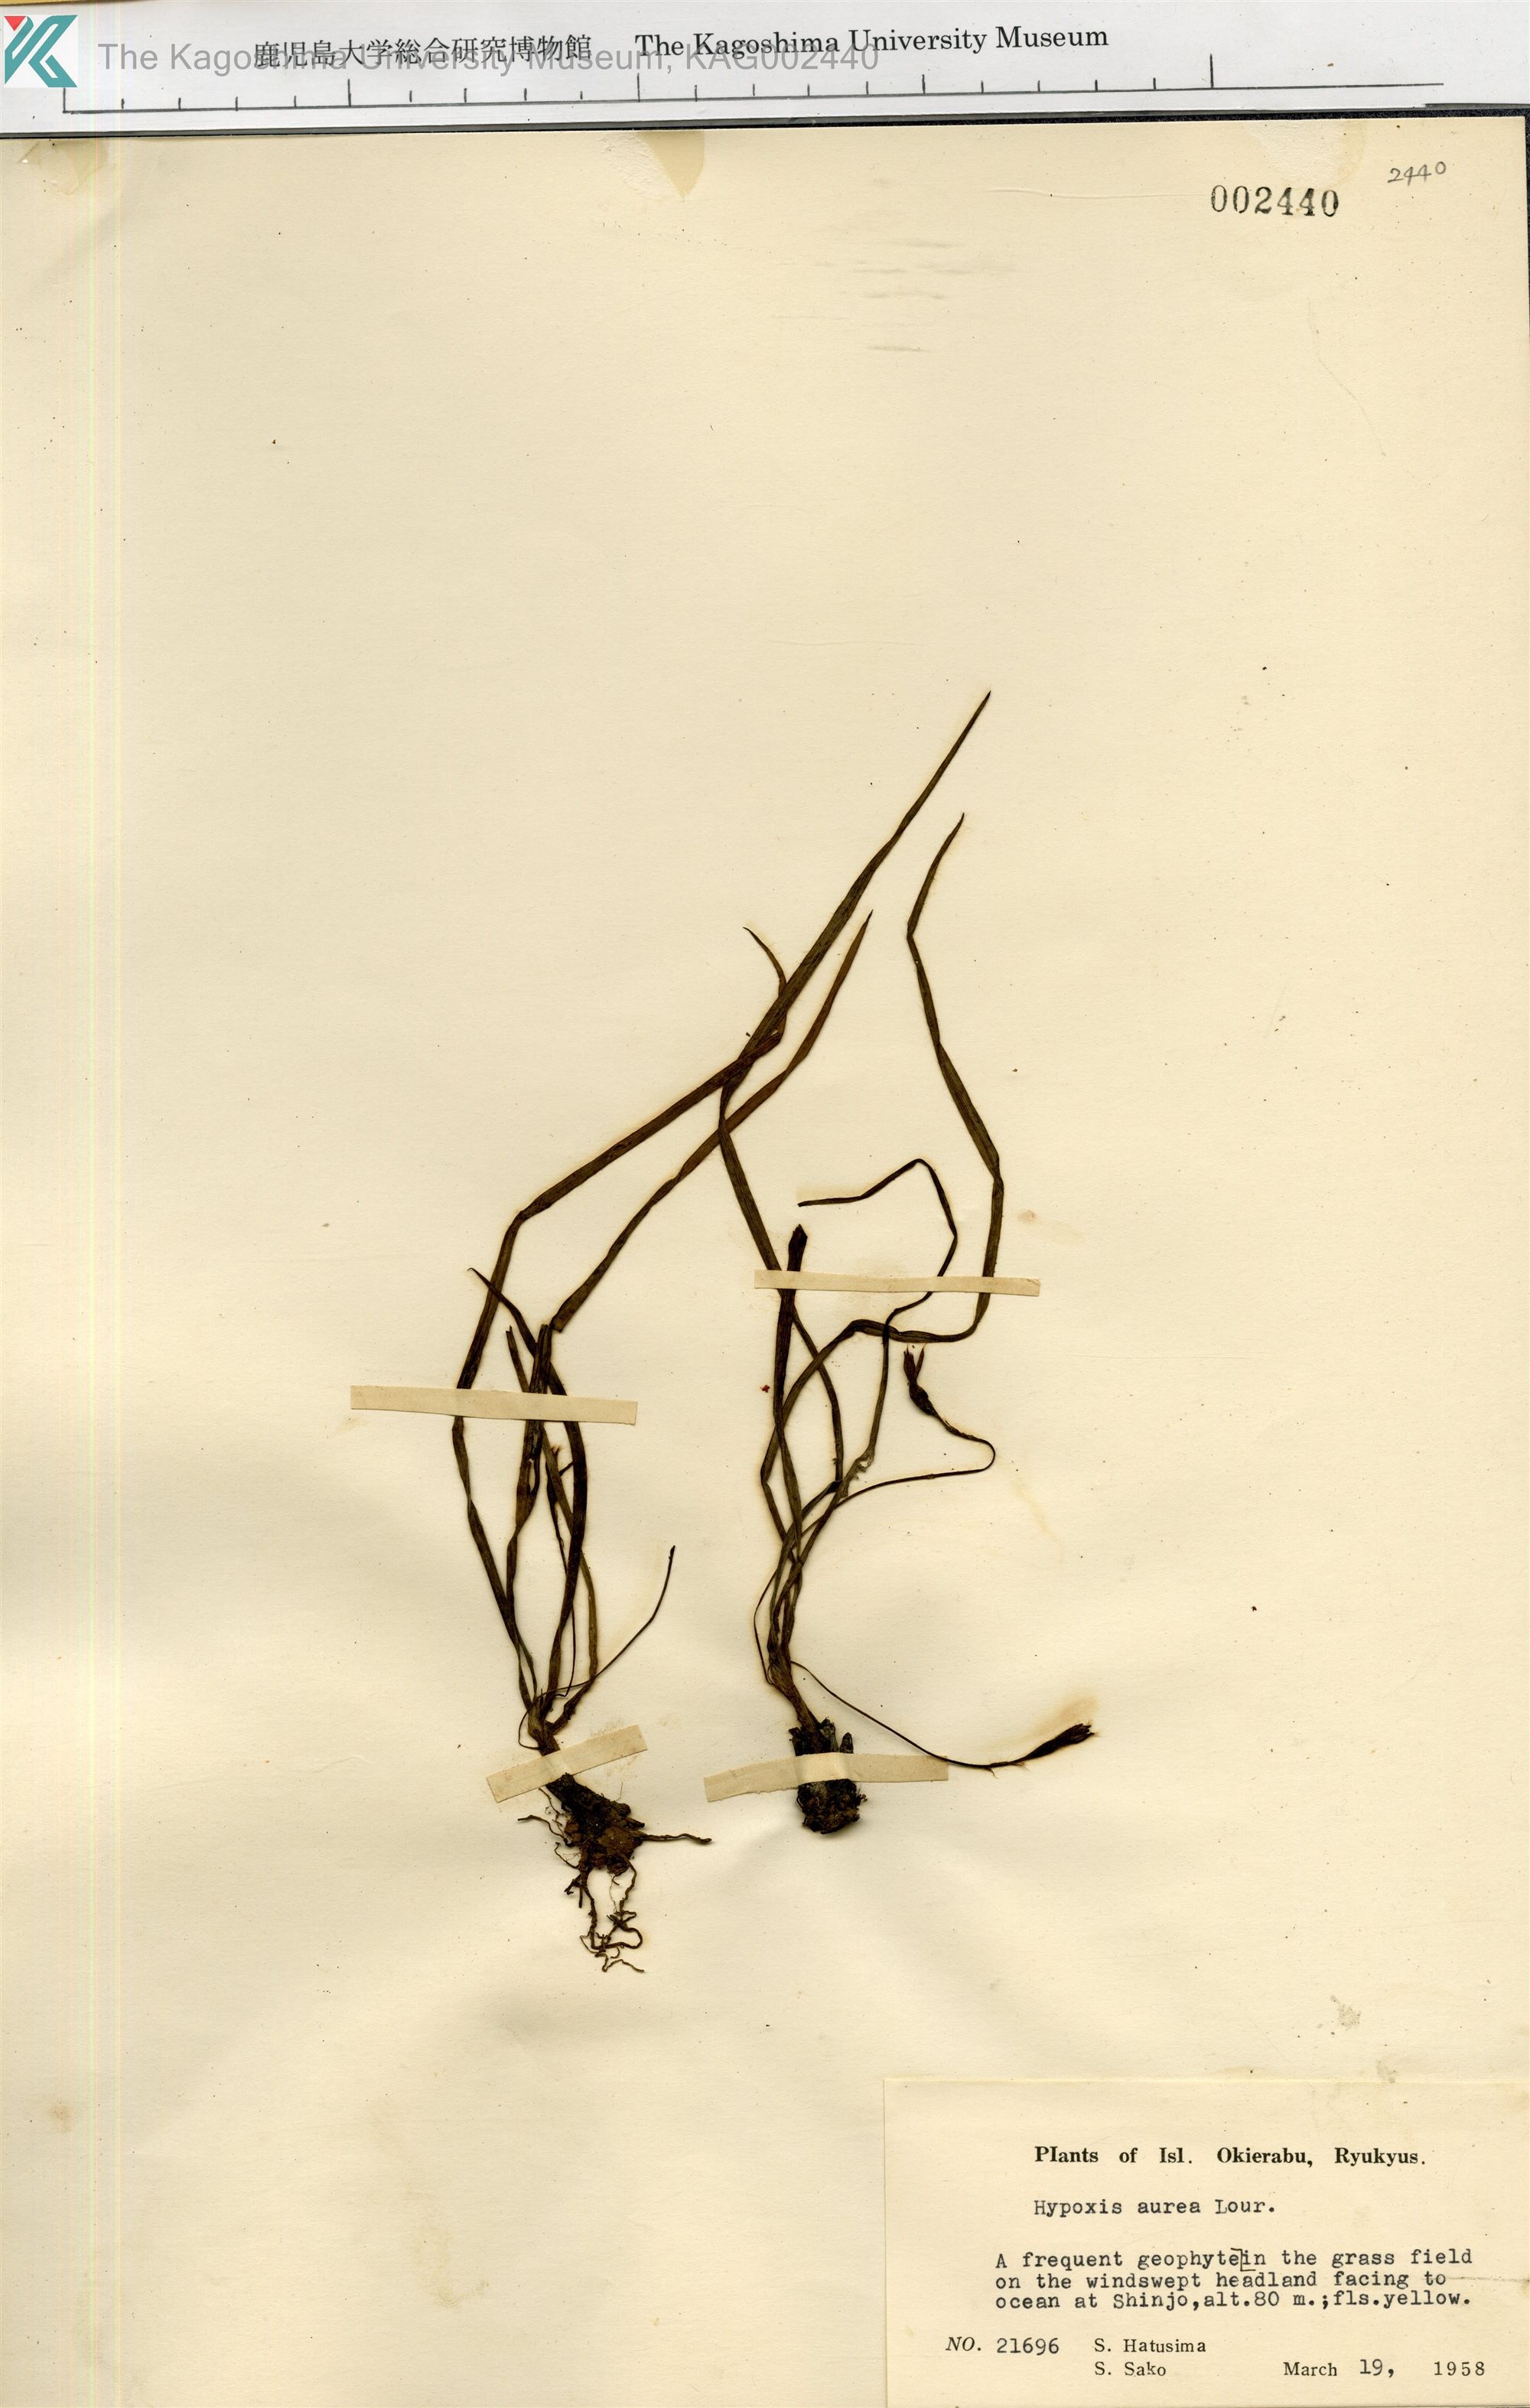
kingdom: Plantae
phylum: Tracheophyta
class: Liliopsida
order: Asparagales
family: Hypoxidaceae
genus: Hypoxis
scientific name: Hypoxis aurea
